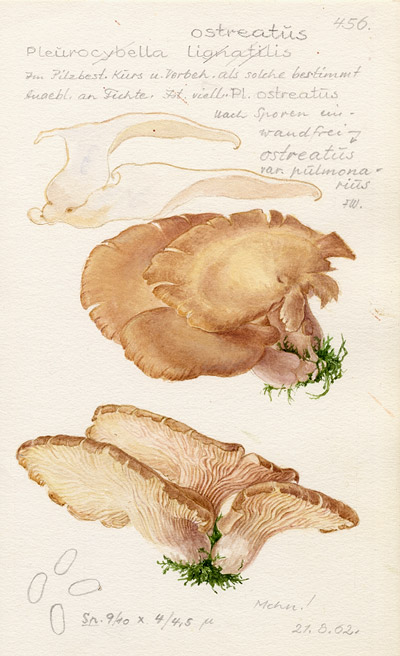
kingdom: Fungi
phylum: Basidiomycota
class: Agaricomycetes
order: Agaricales
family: Pleurotaceae
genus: Pleurotus
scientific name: Pleurotus ostreatus
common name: Oyster mushroom
